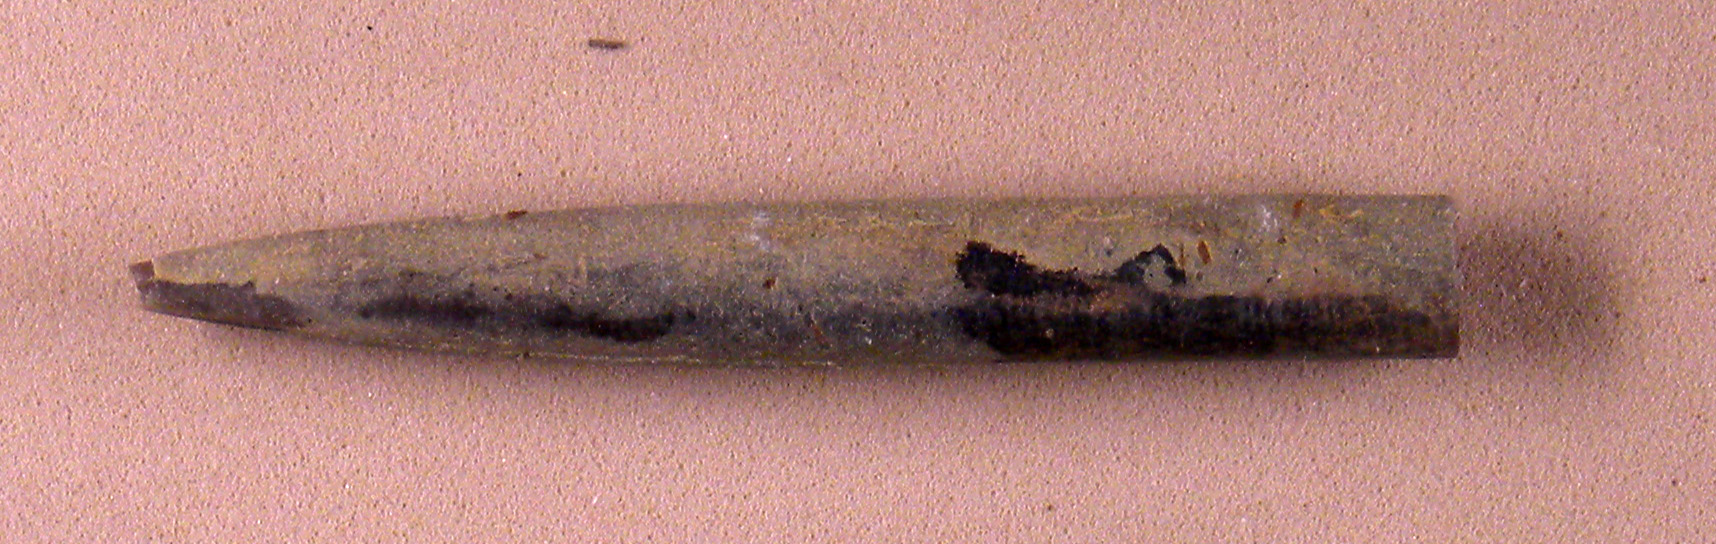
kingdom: Animalia
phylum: Mollusca
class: Cephalopoda
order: Belemnitida
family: Megateuthididae
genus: Acrocoelites
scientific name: Acrocoelites bobeti
